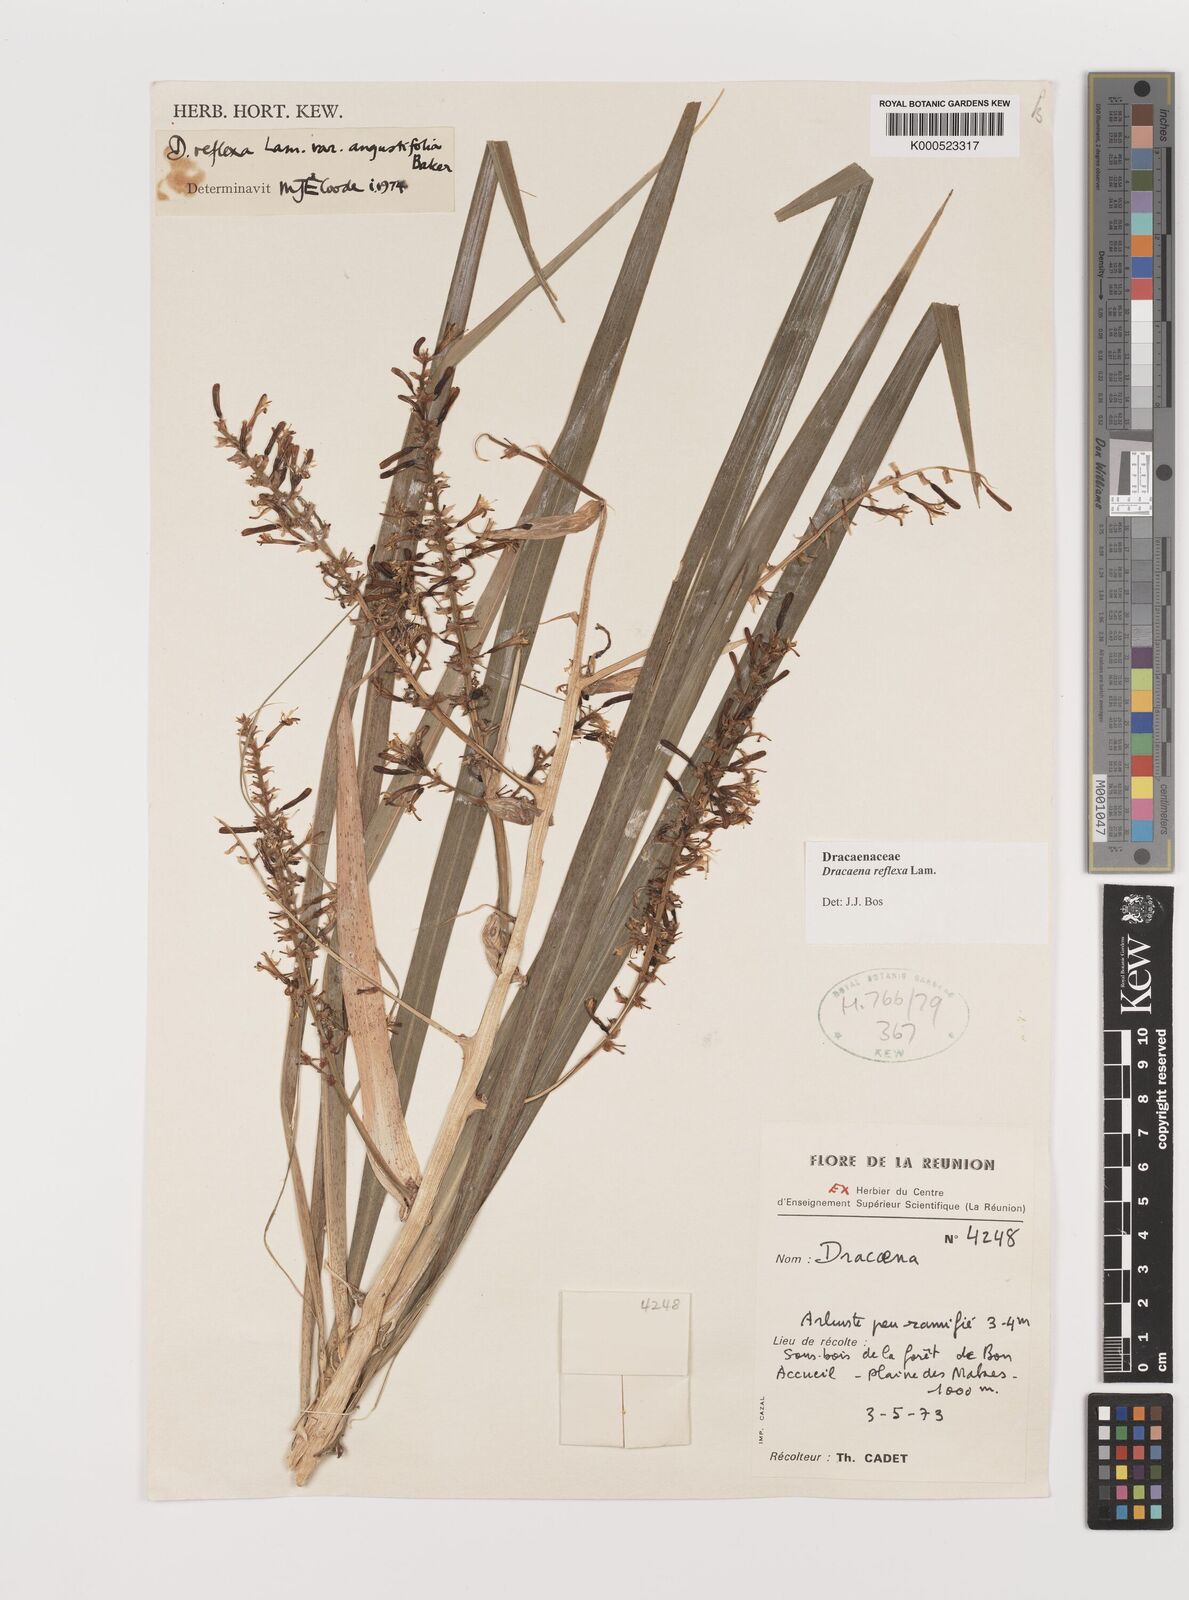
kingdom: Plantae
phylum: Tracheophyta
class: Liliopsida
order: Asparagales
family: Asparagaceae
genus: Dracaena
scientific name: Dracaena reflexa
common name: Song-of-india
